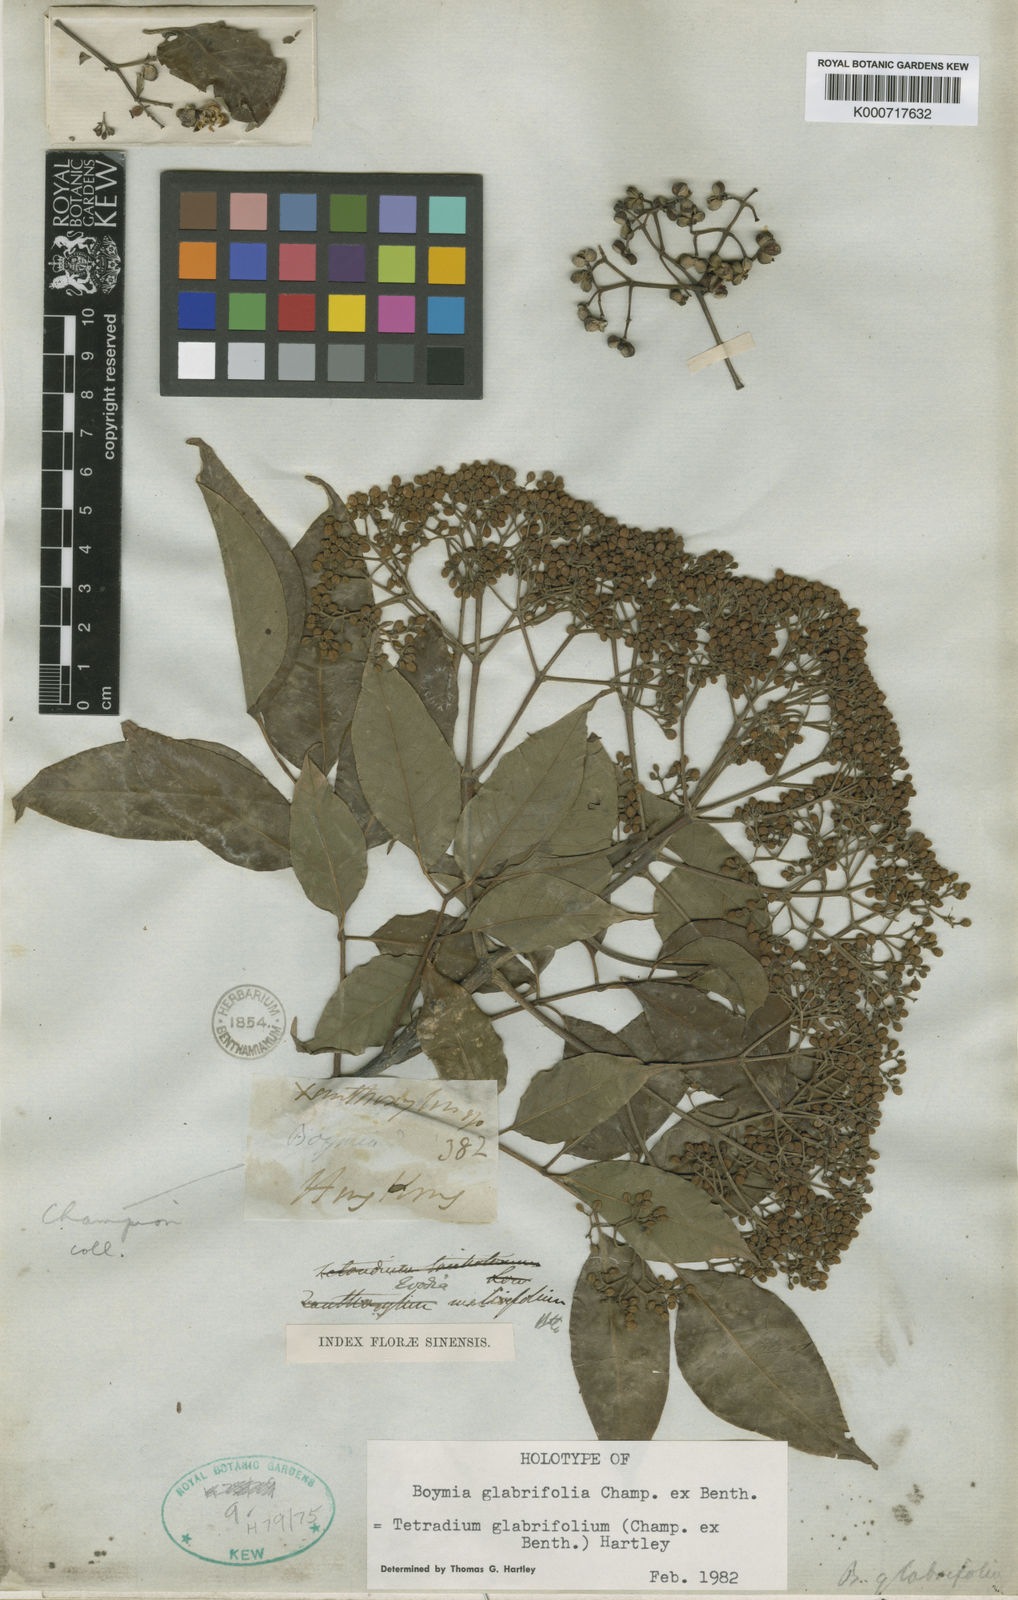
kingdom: Plantae
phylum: Tracheophyta
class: Magnoliopsida
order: Sapindales
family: Rutaceae
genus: Tetradium
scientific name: Tetradium glabrifolium
